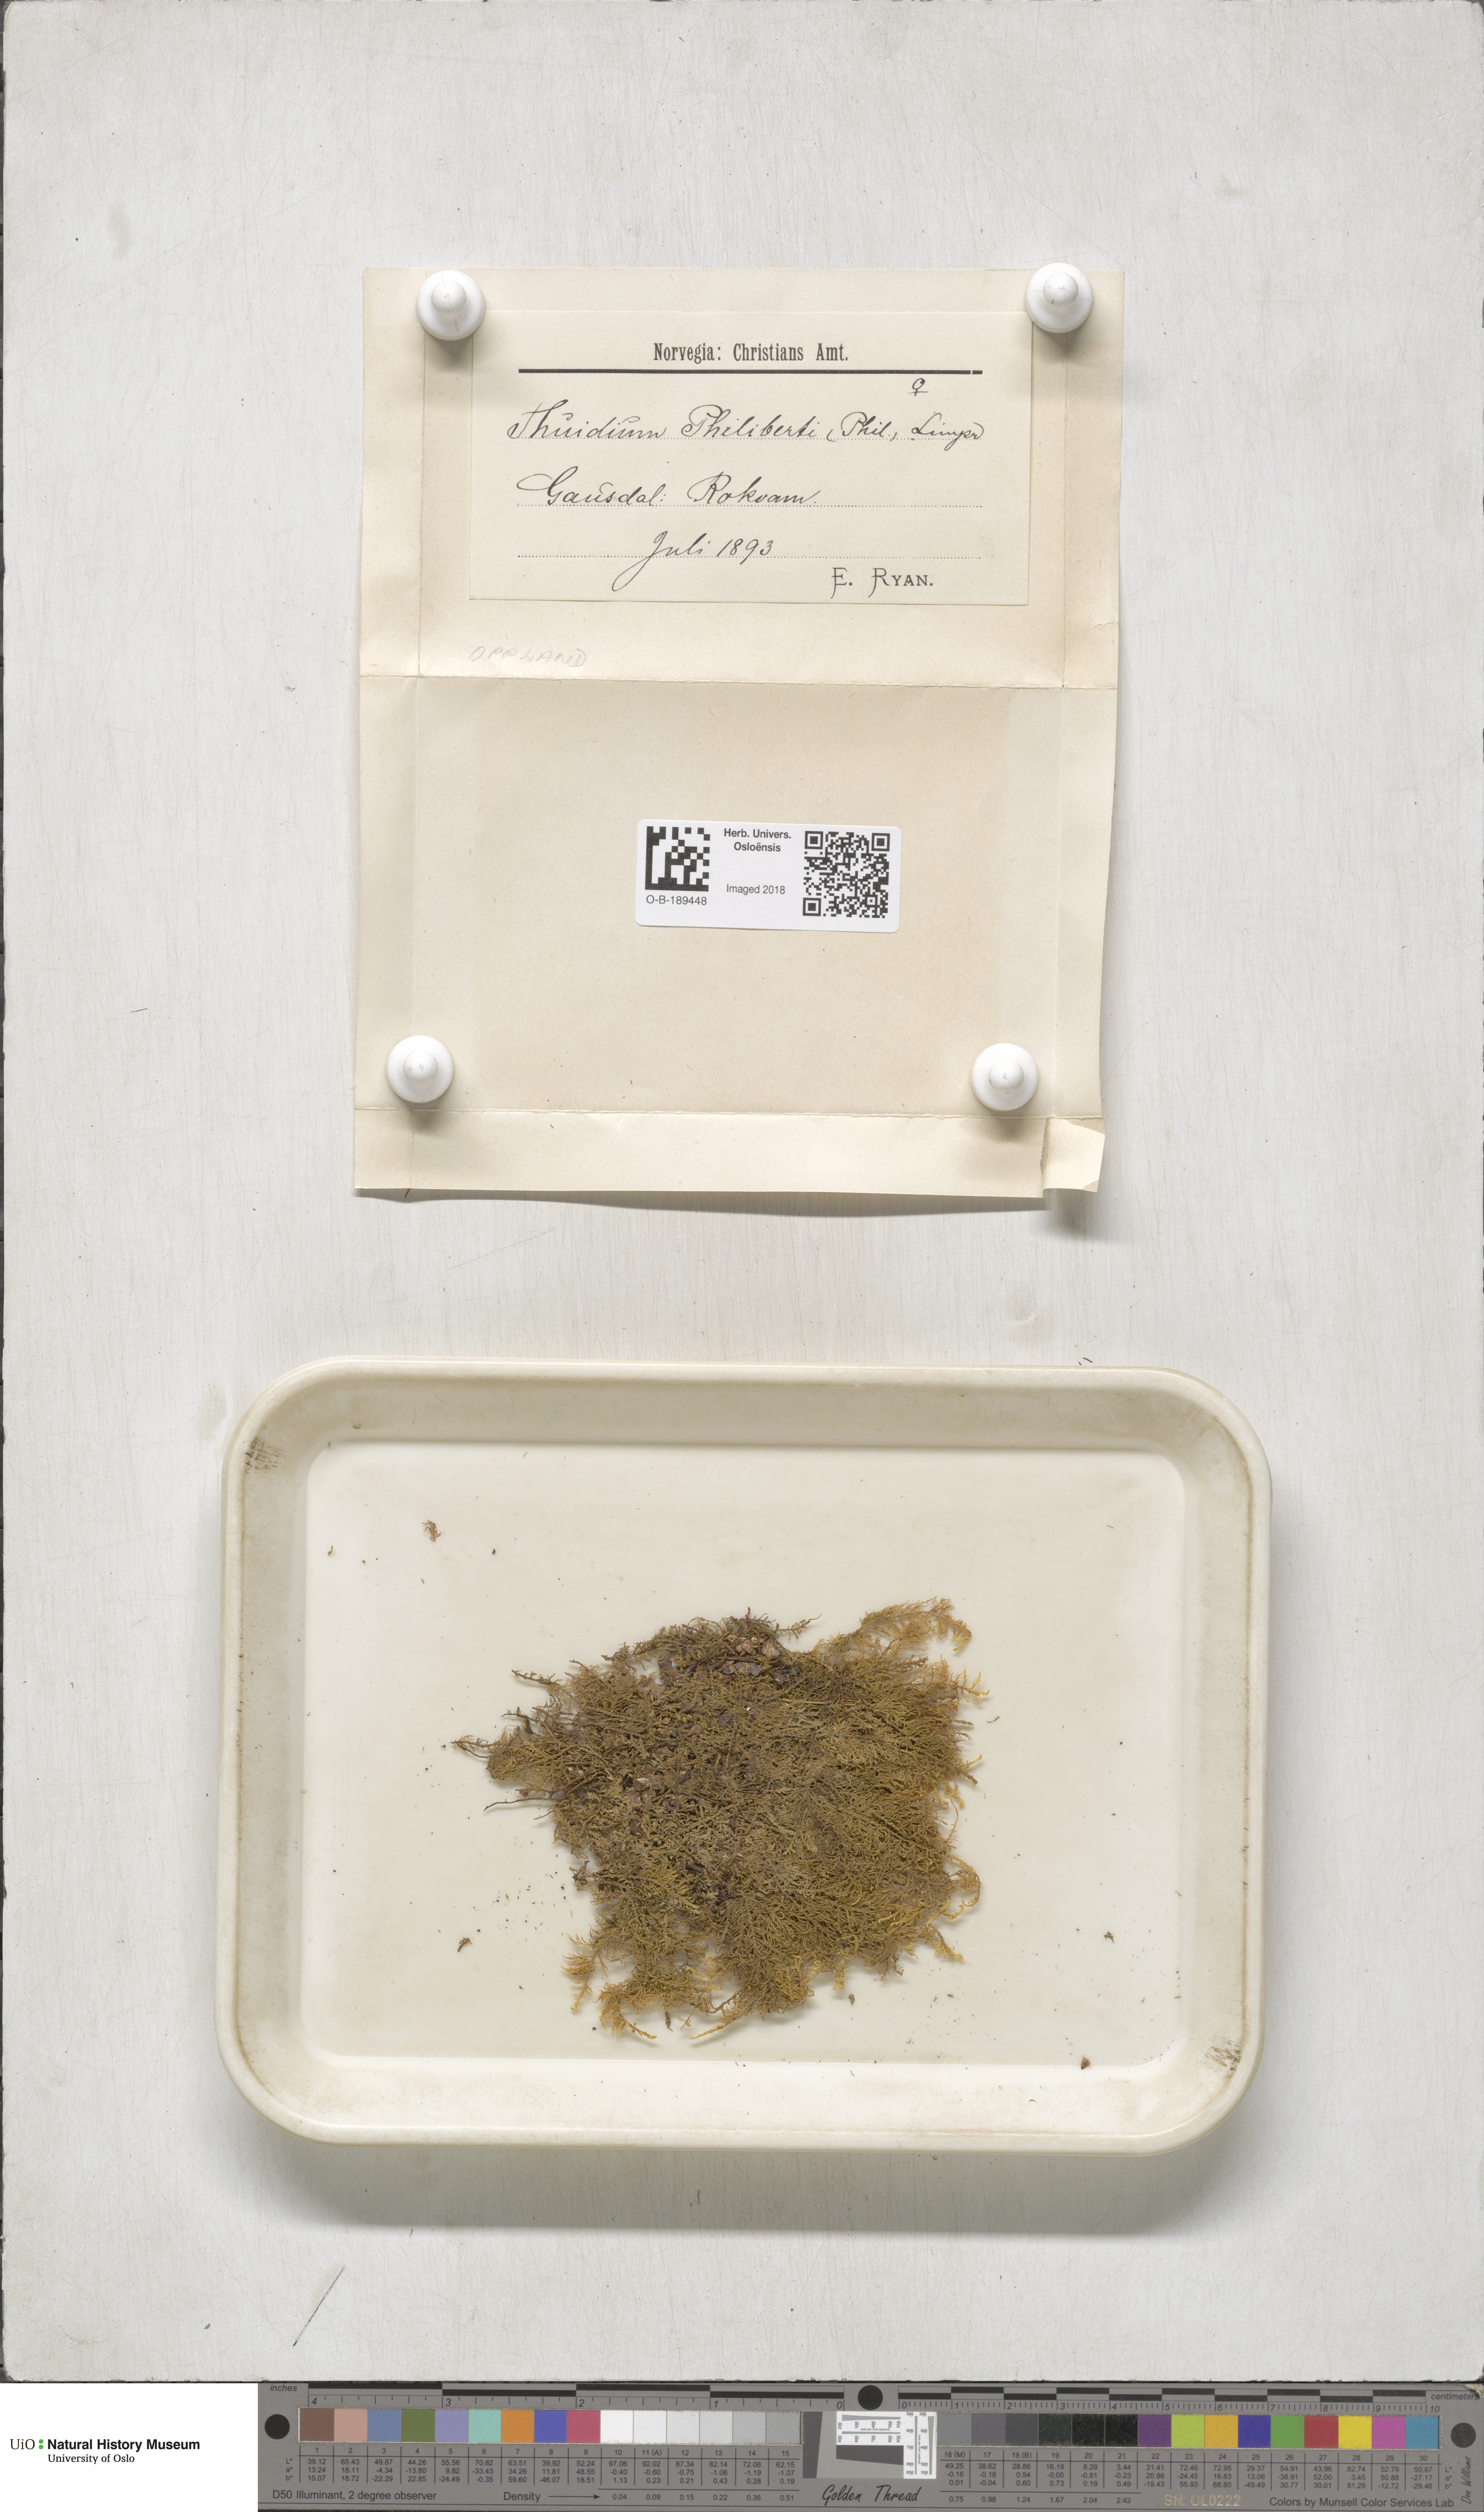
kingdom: Plantae
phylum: Bryophyta
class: Bryopsida
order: Hypnales
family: Thuidiaceae
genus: Thuidium
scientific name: Thuidium assimile
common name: Philibert's fern moss
